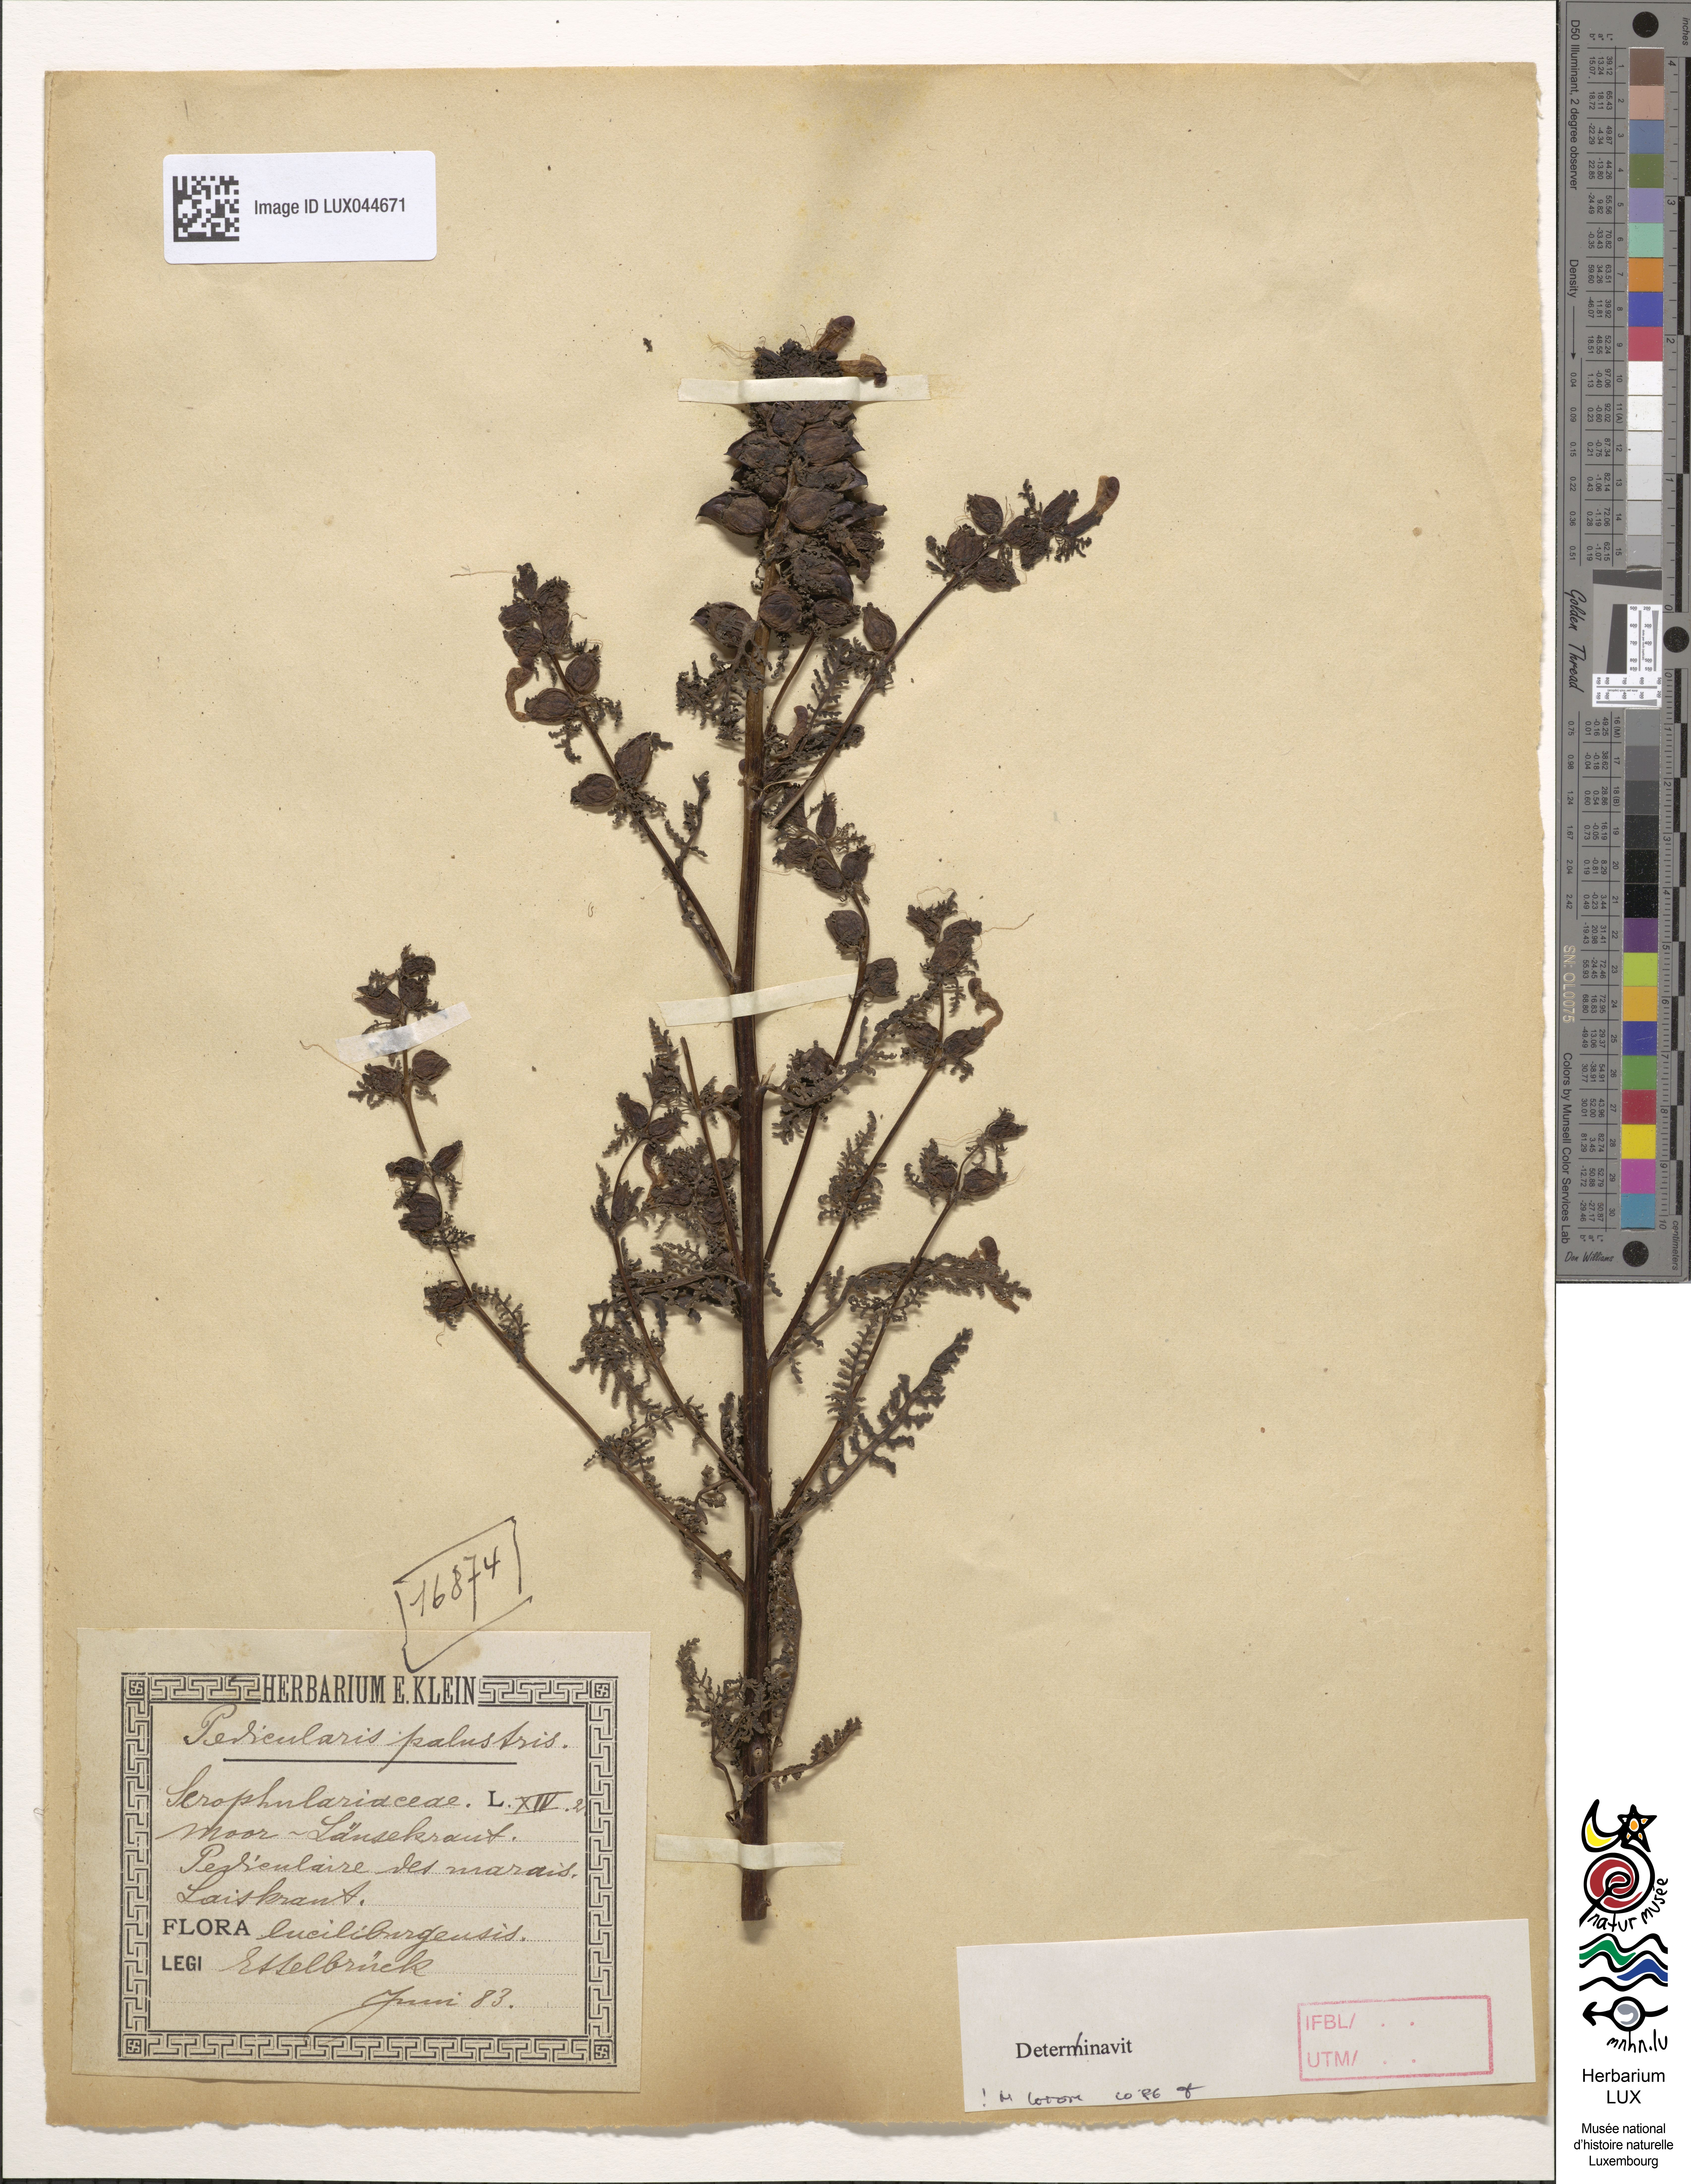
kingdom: Plantae
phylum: Tracheophyta
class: Magnoliopsida
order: Lamiales
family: Orobanchaceae
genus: Pedicularis
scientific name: Pedicularis palustris
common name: Marsh lousewort
